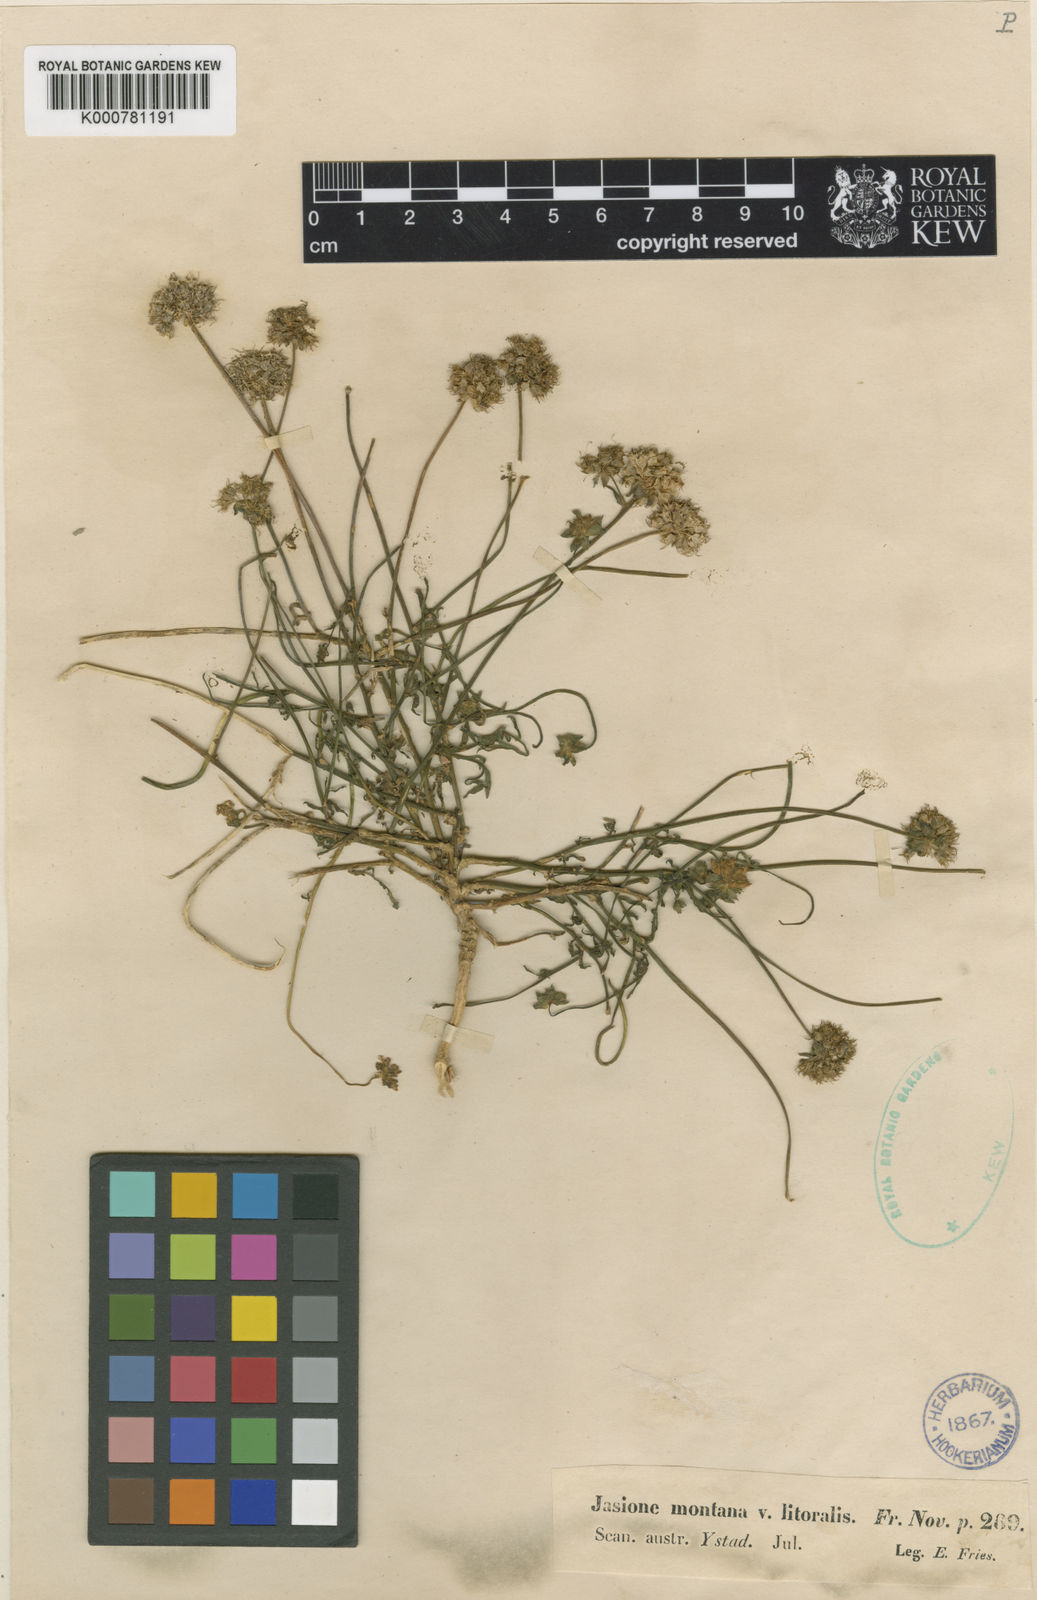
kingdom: Plantae
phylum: Tracheophyta
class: Magnoliopsida
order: Asterales
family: Campanulaceae
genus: Jasione
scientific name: Jasione montana
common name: Sheep's-bit
